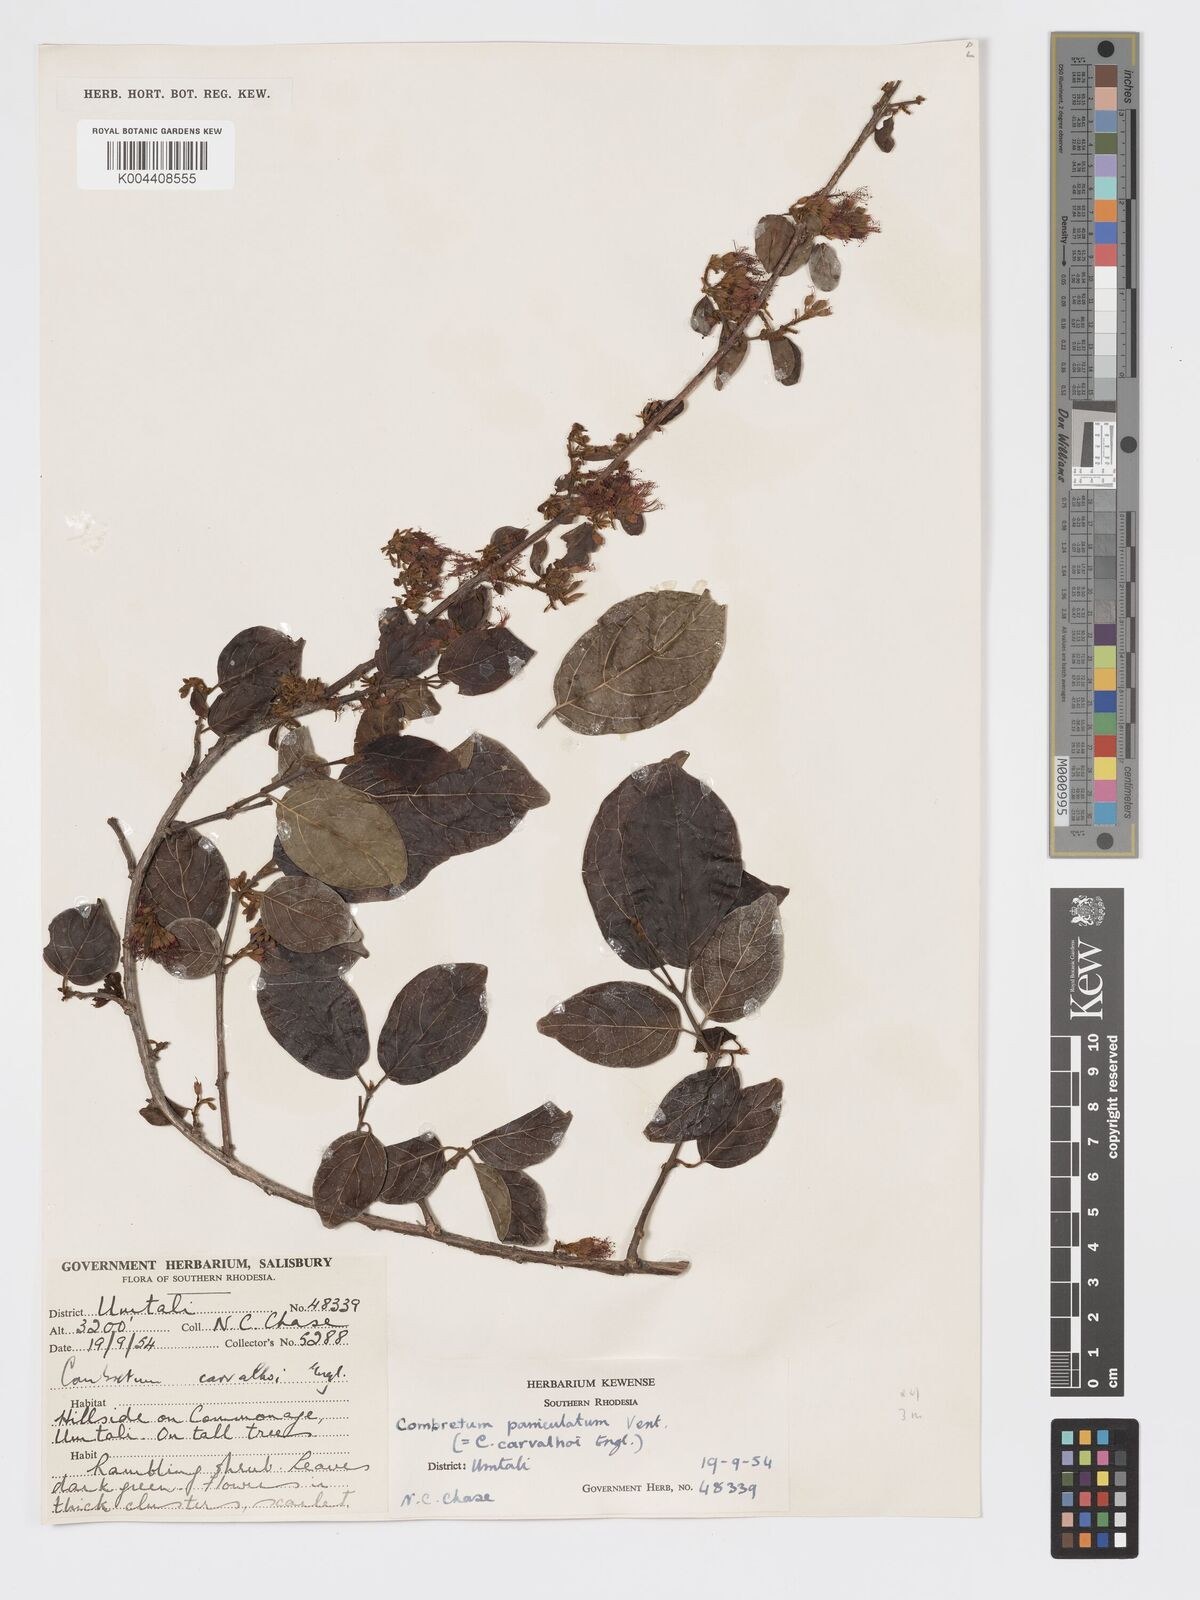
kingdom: Plantae
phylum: Tracheophyta
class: Magnoliopsida
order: Myrtales
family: Combretaceae
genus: Combretum
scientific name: Combretum paniculatum
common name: Fire vine
